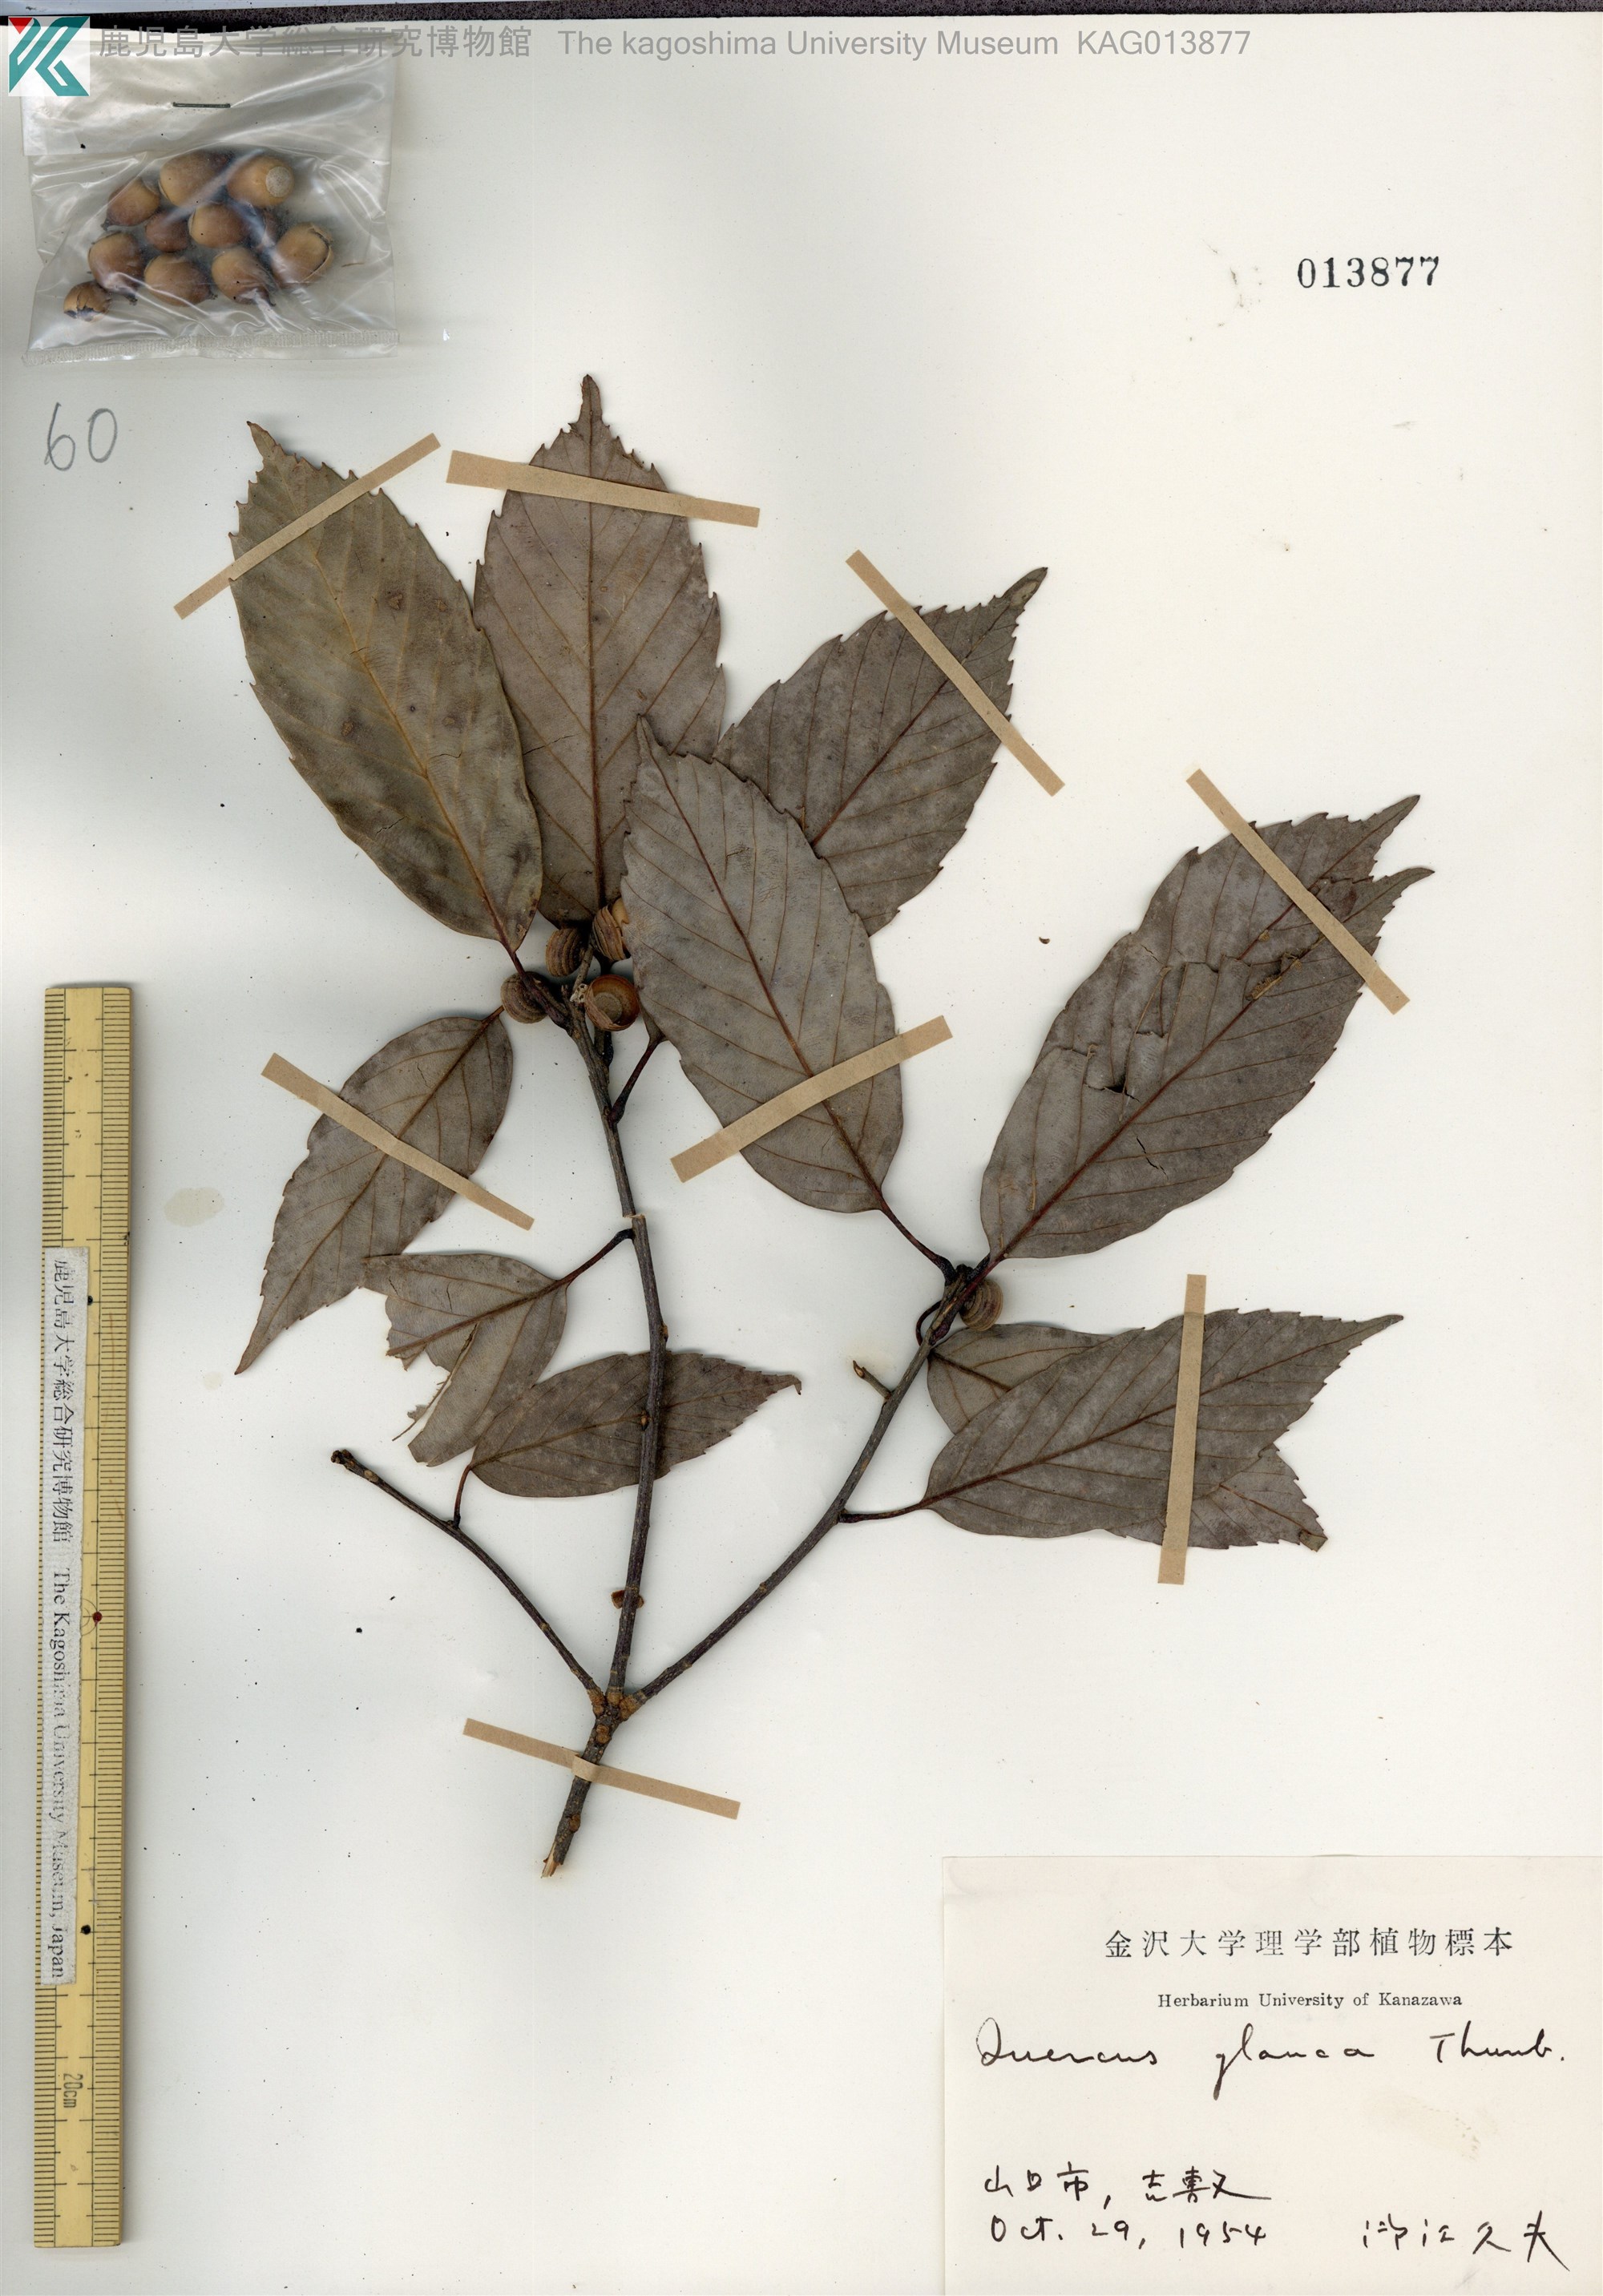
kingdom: Plantae
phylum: Tracheophyta
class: Magnoliopsida
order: Fagales
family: Fagaceae
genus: Quercus
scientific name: Quercus glauca
